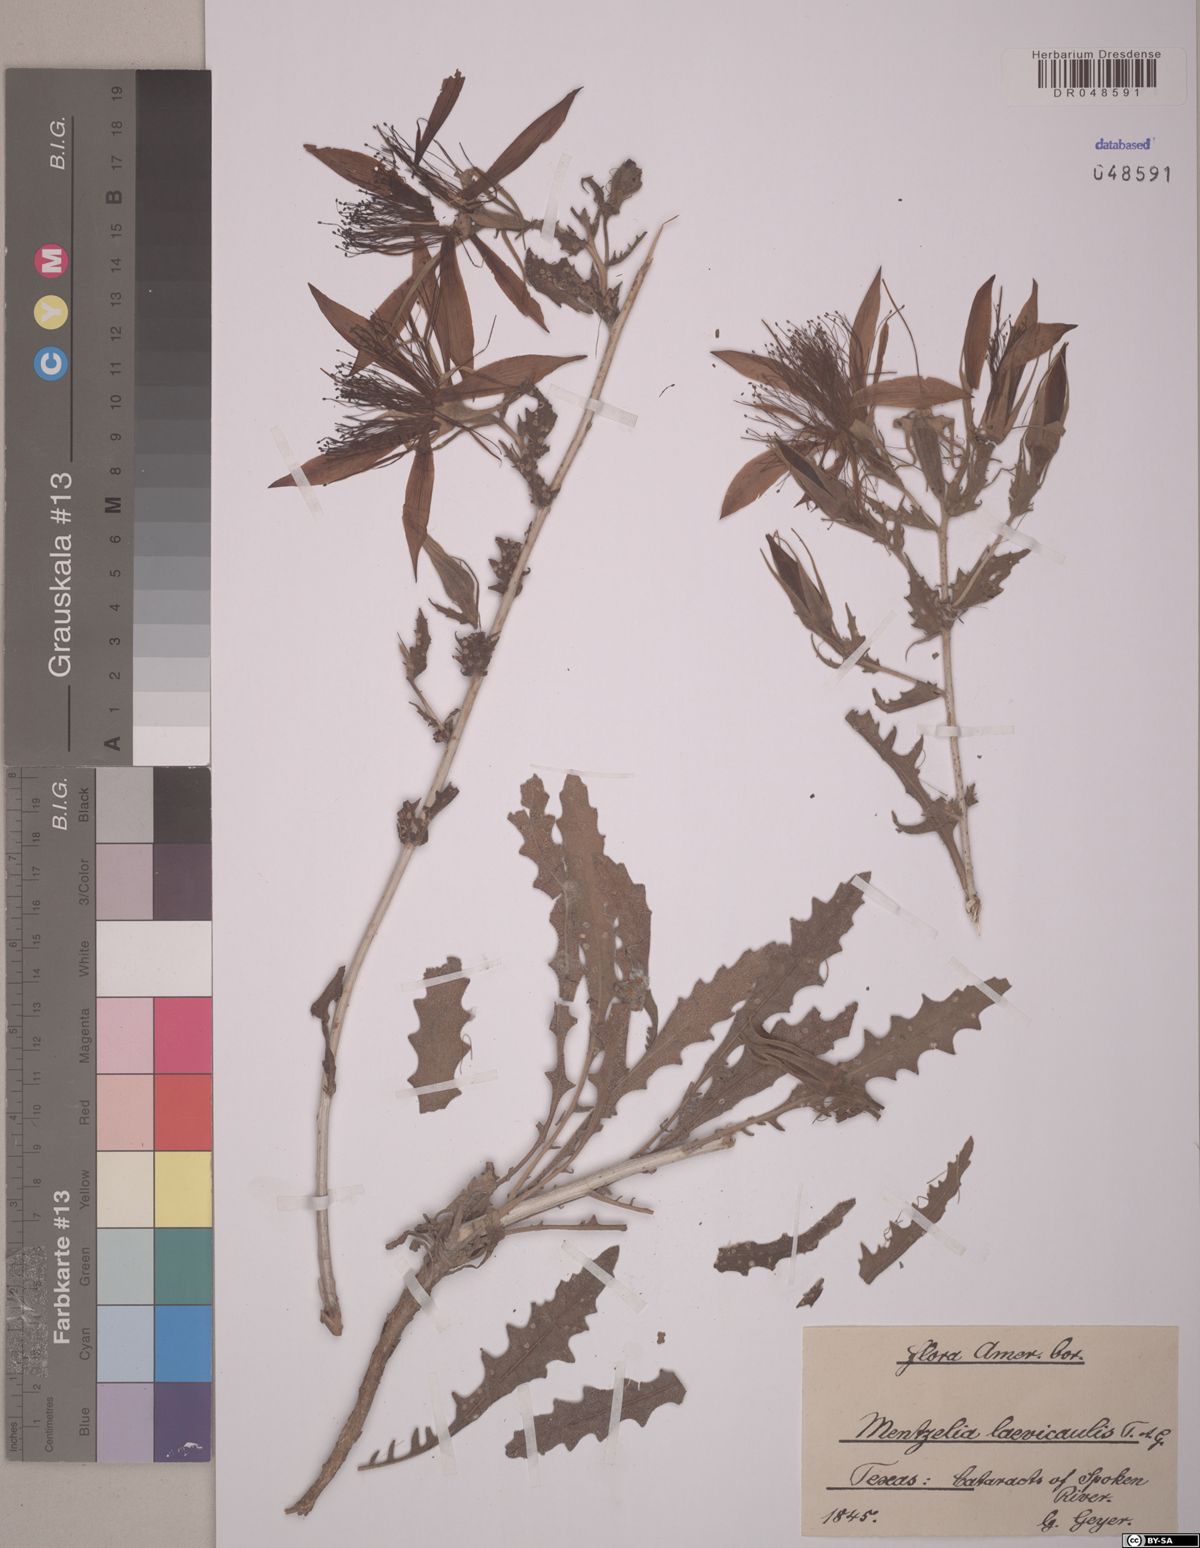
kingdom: Plantae
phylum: Tracheophyta
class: Magnoliopsida
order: Cornales
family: Loasaceae
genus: Mentzelia
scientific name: Mentzelia laevicaulis
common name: Smooth-stem blazingstar
